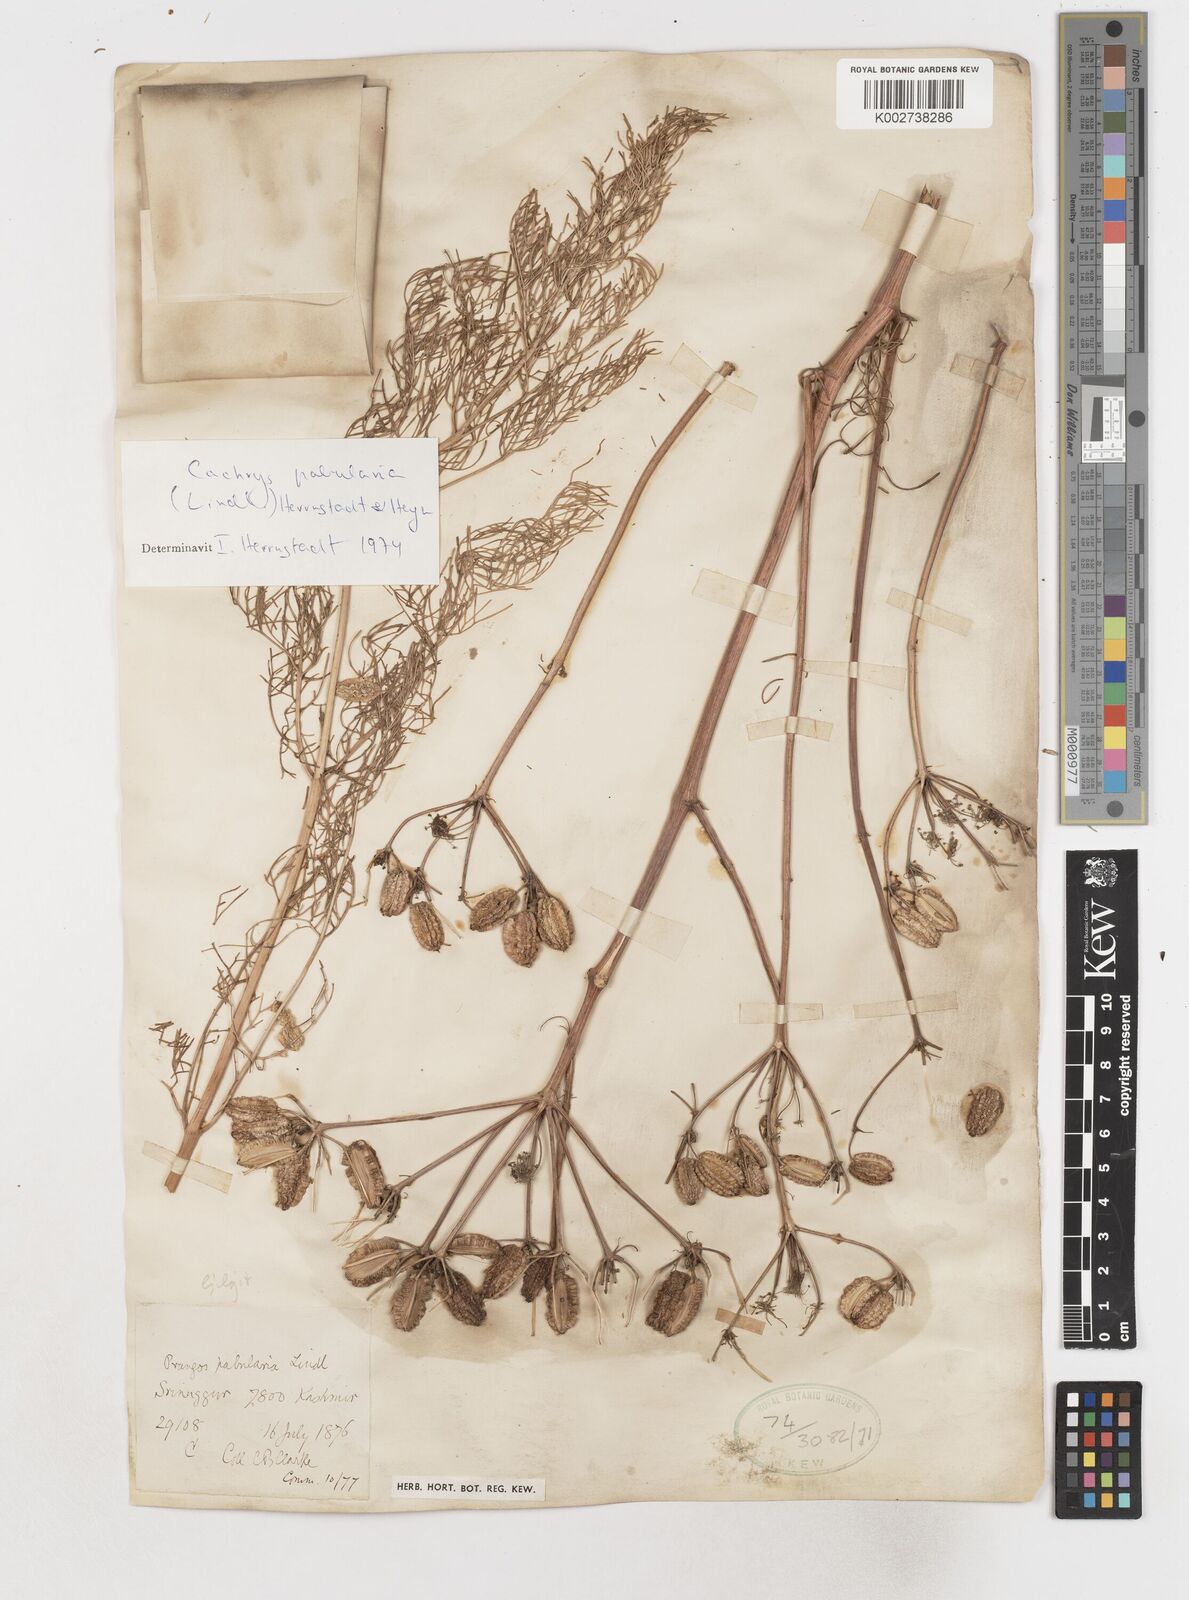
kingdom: Plantae
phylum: Tracheophyta
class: Magnoliopsida
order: Apiales
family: Apiaceae
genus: Prangos
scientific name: Prangos
